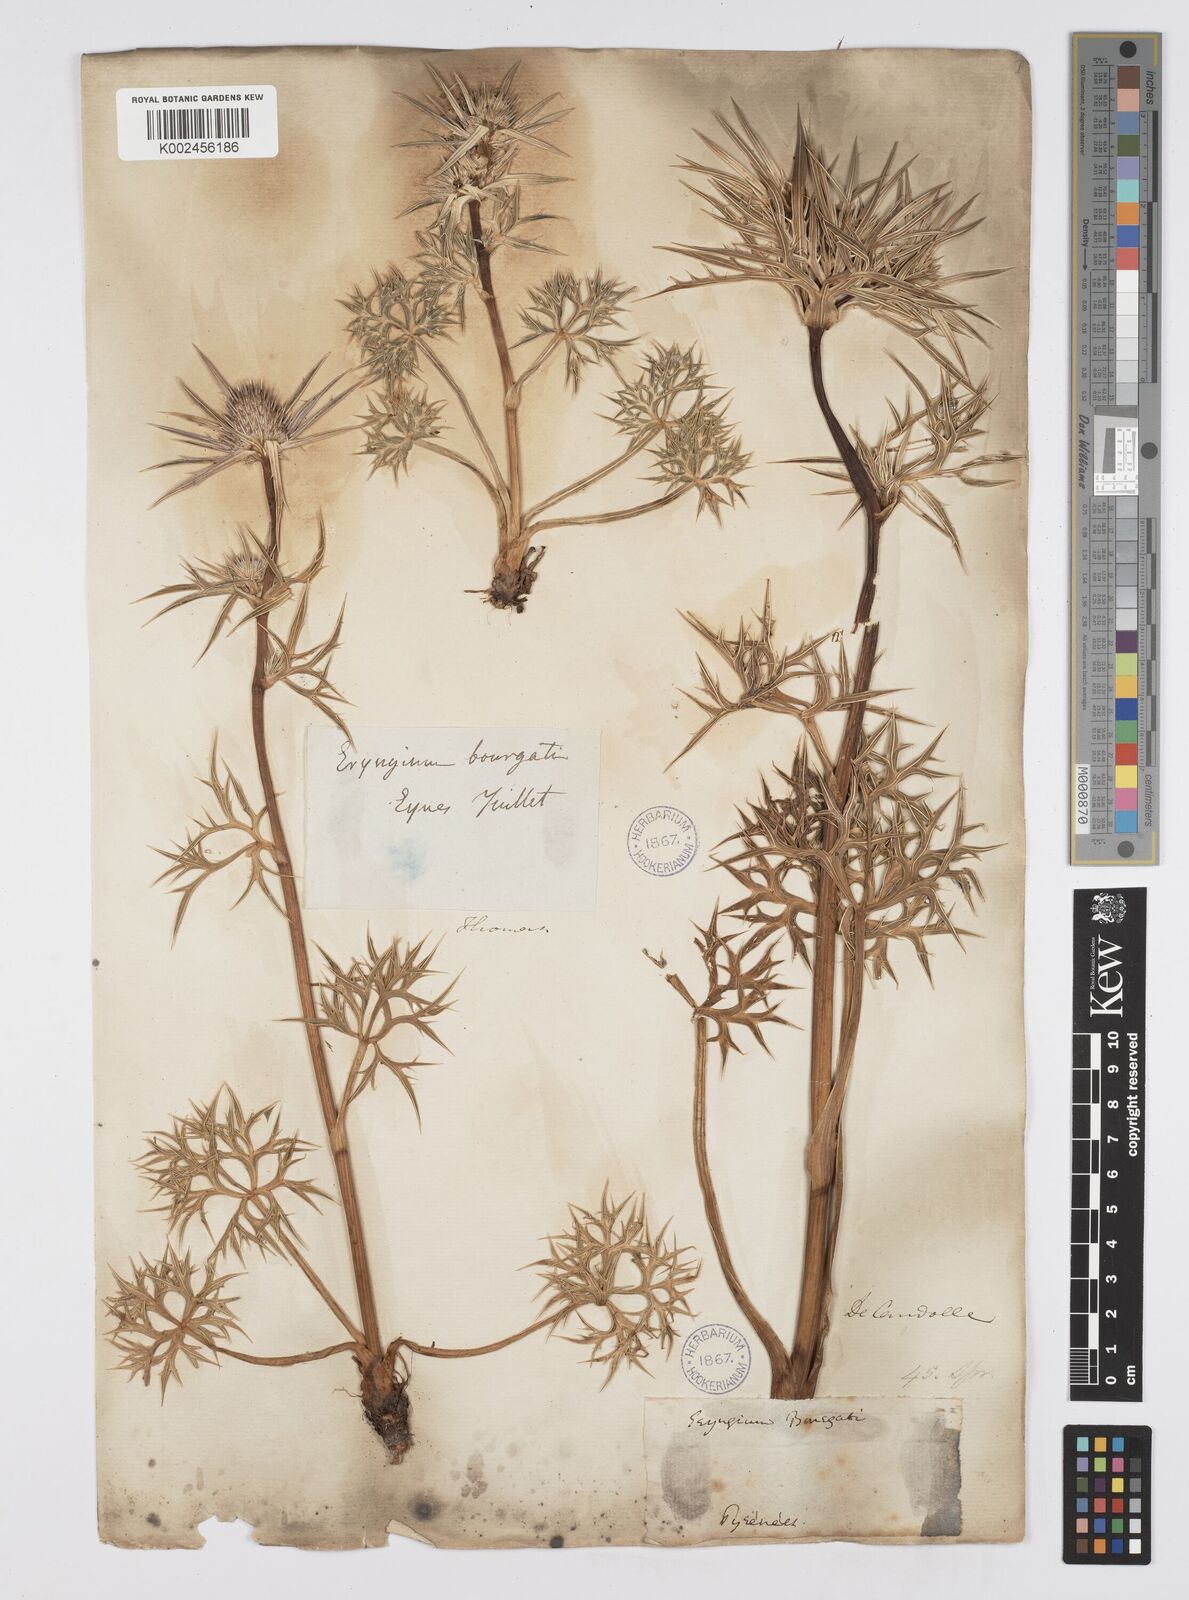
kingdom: Plantae
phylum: Tracheophyta
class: Magnoliopsida
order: Apiales
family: Apiaceae
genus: Eryngium
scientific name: Eryngium bourgatii
